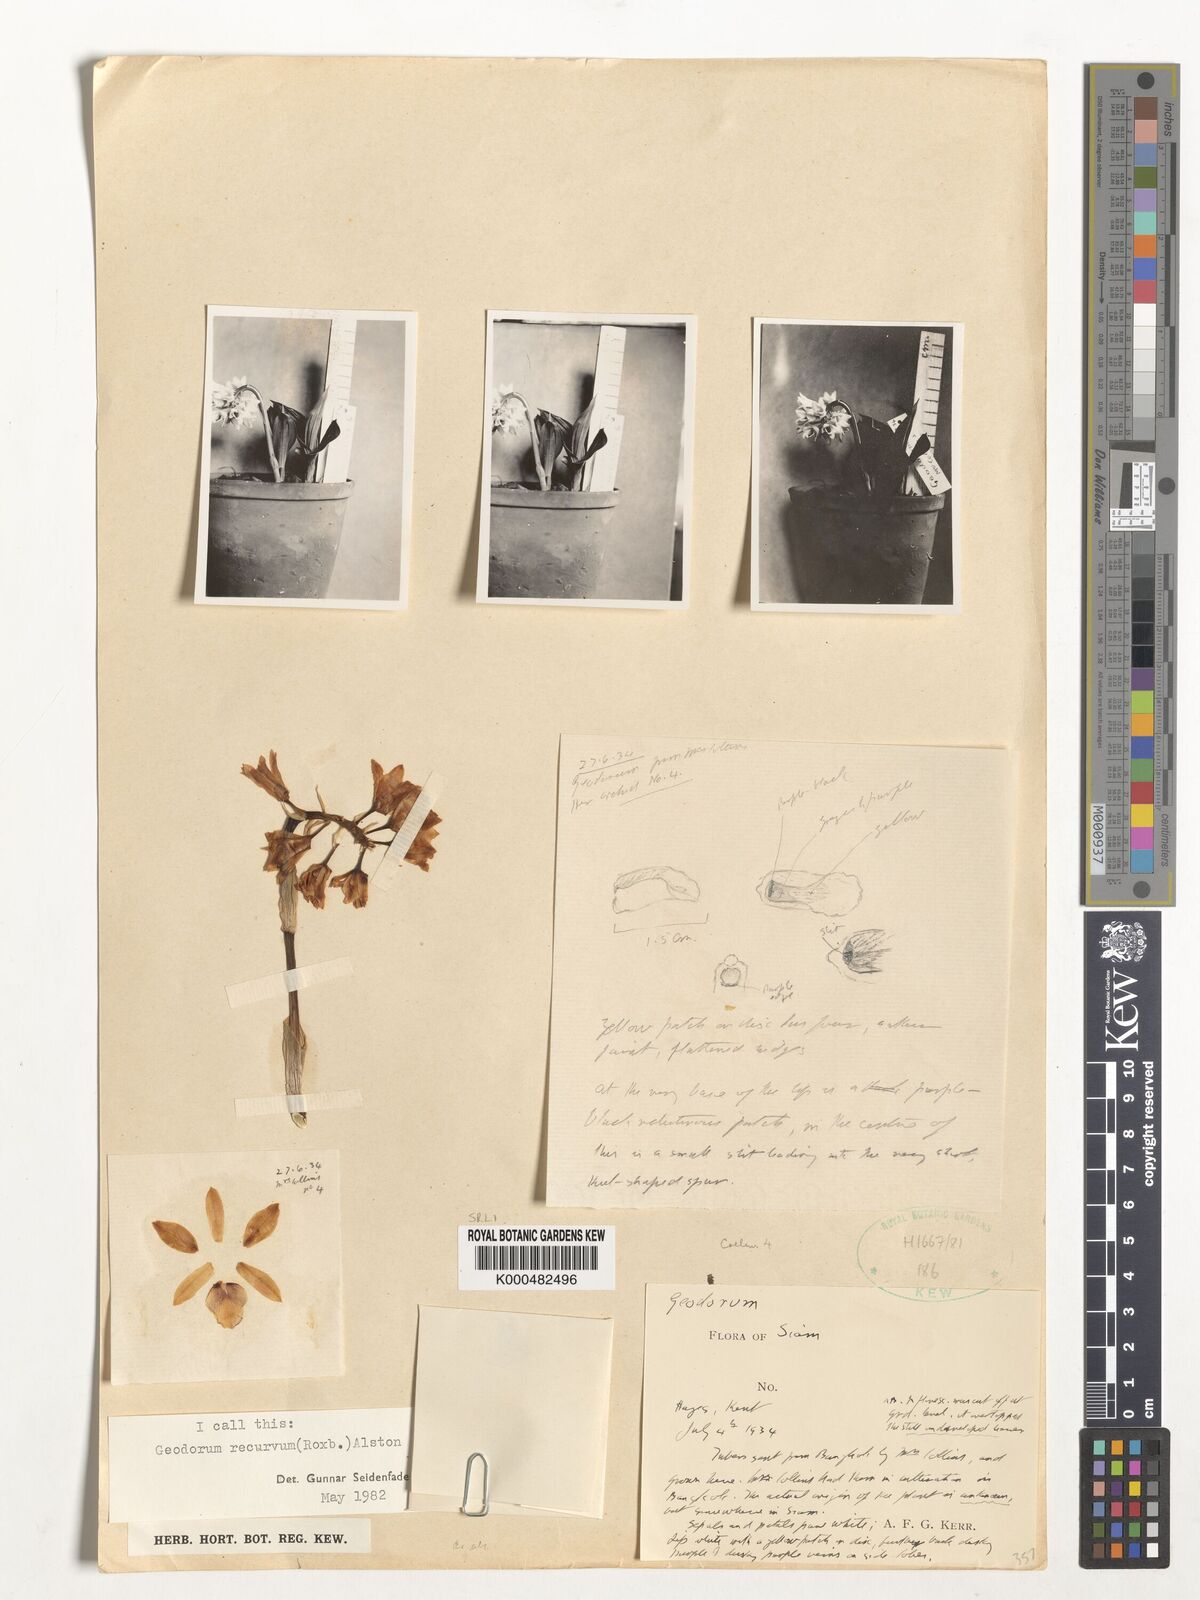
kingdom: Plantae
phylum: Tracheophyta
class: Liliopsida
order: Asparagales
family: Orchidaceae
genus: Eulophia
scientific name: Eulophia recurva
